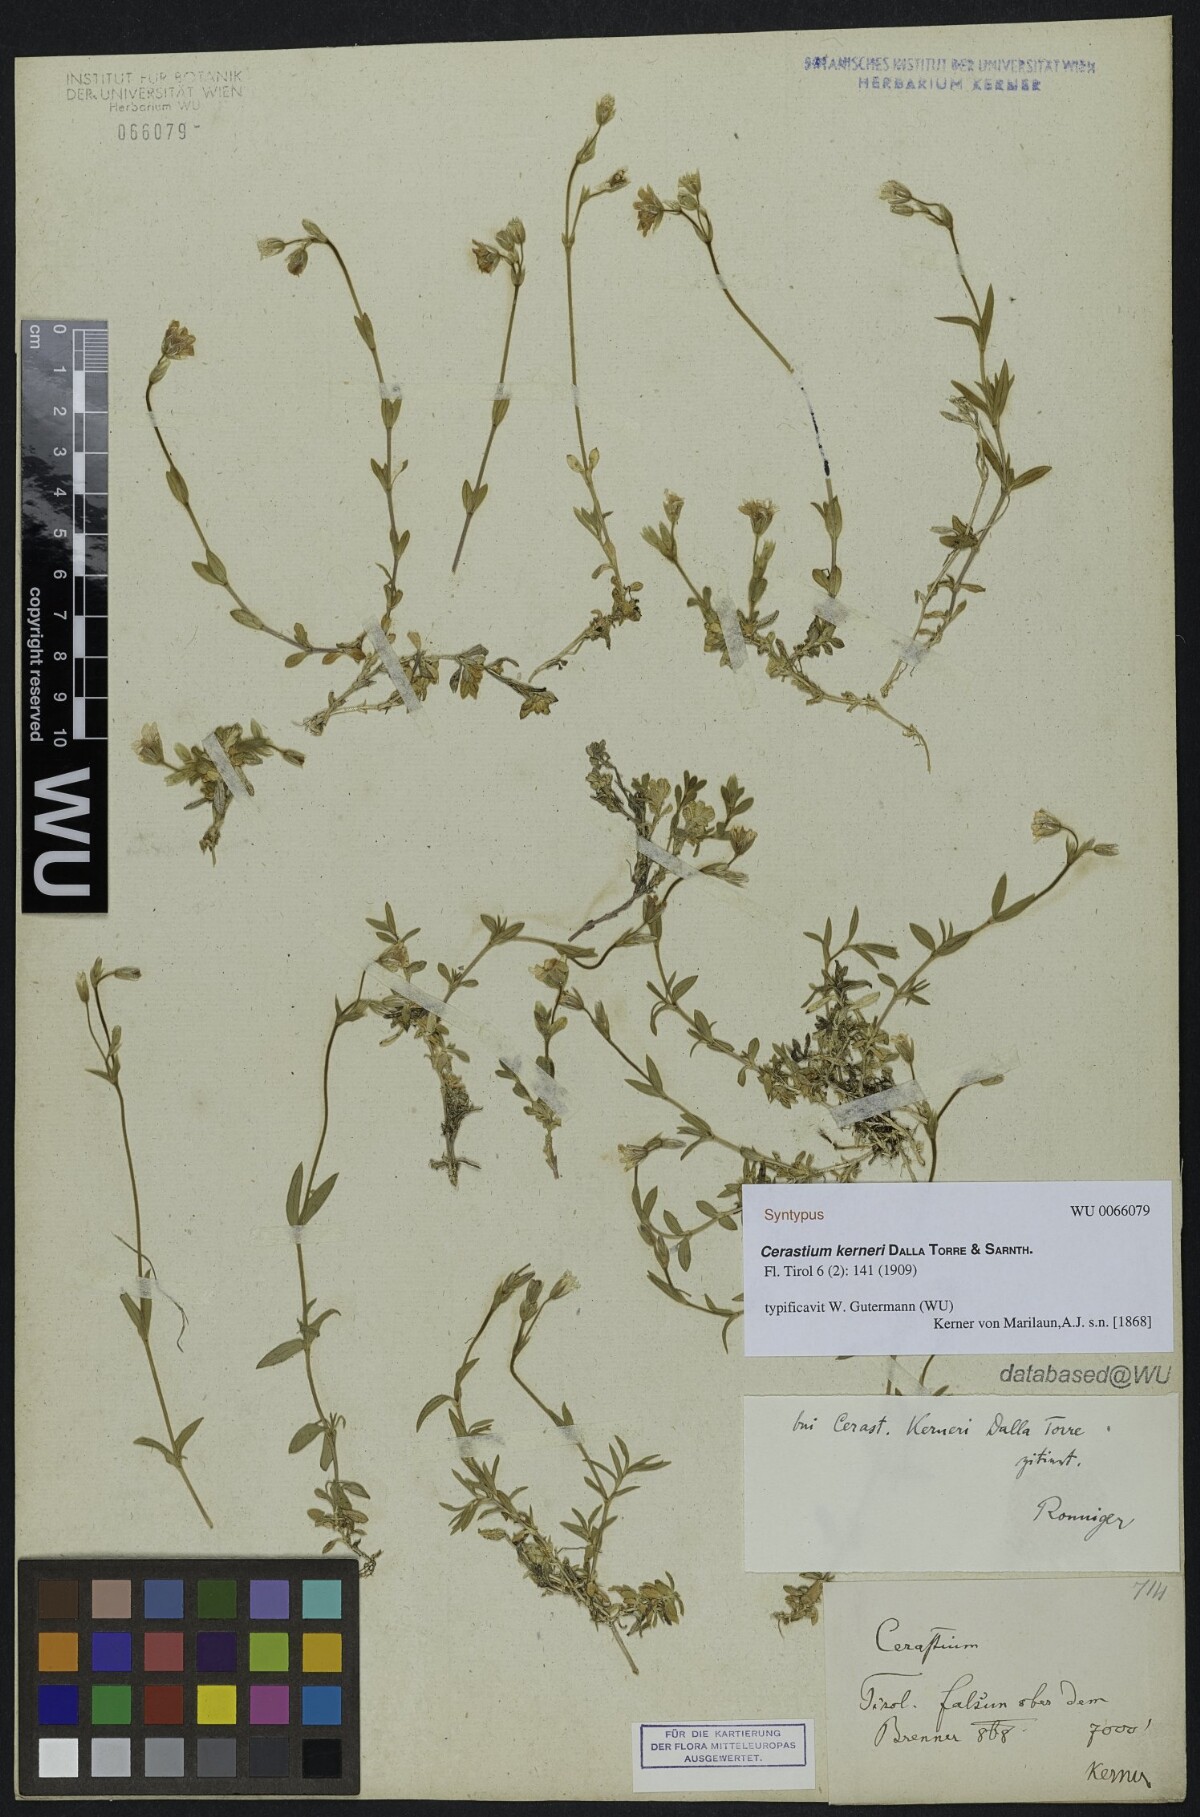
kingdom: Plantae
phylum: Tracheophyta
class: Magnoliopsida
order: Caryophyllales
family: Caryophyllaceae
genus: Cerastium
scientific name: Cerastium elongatum
